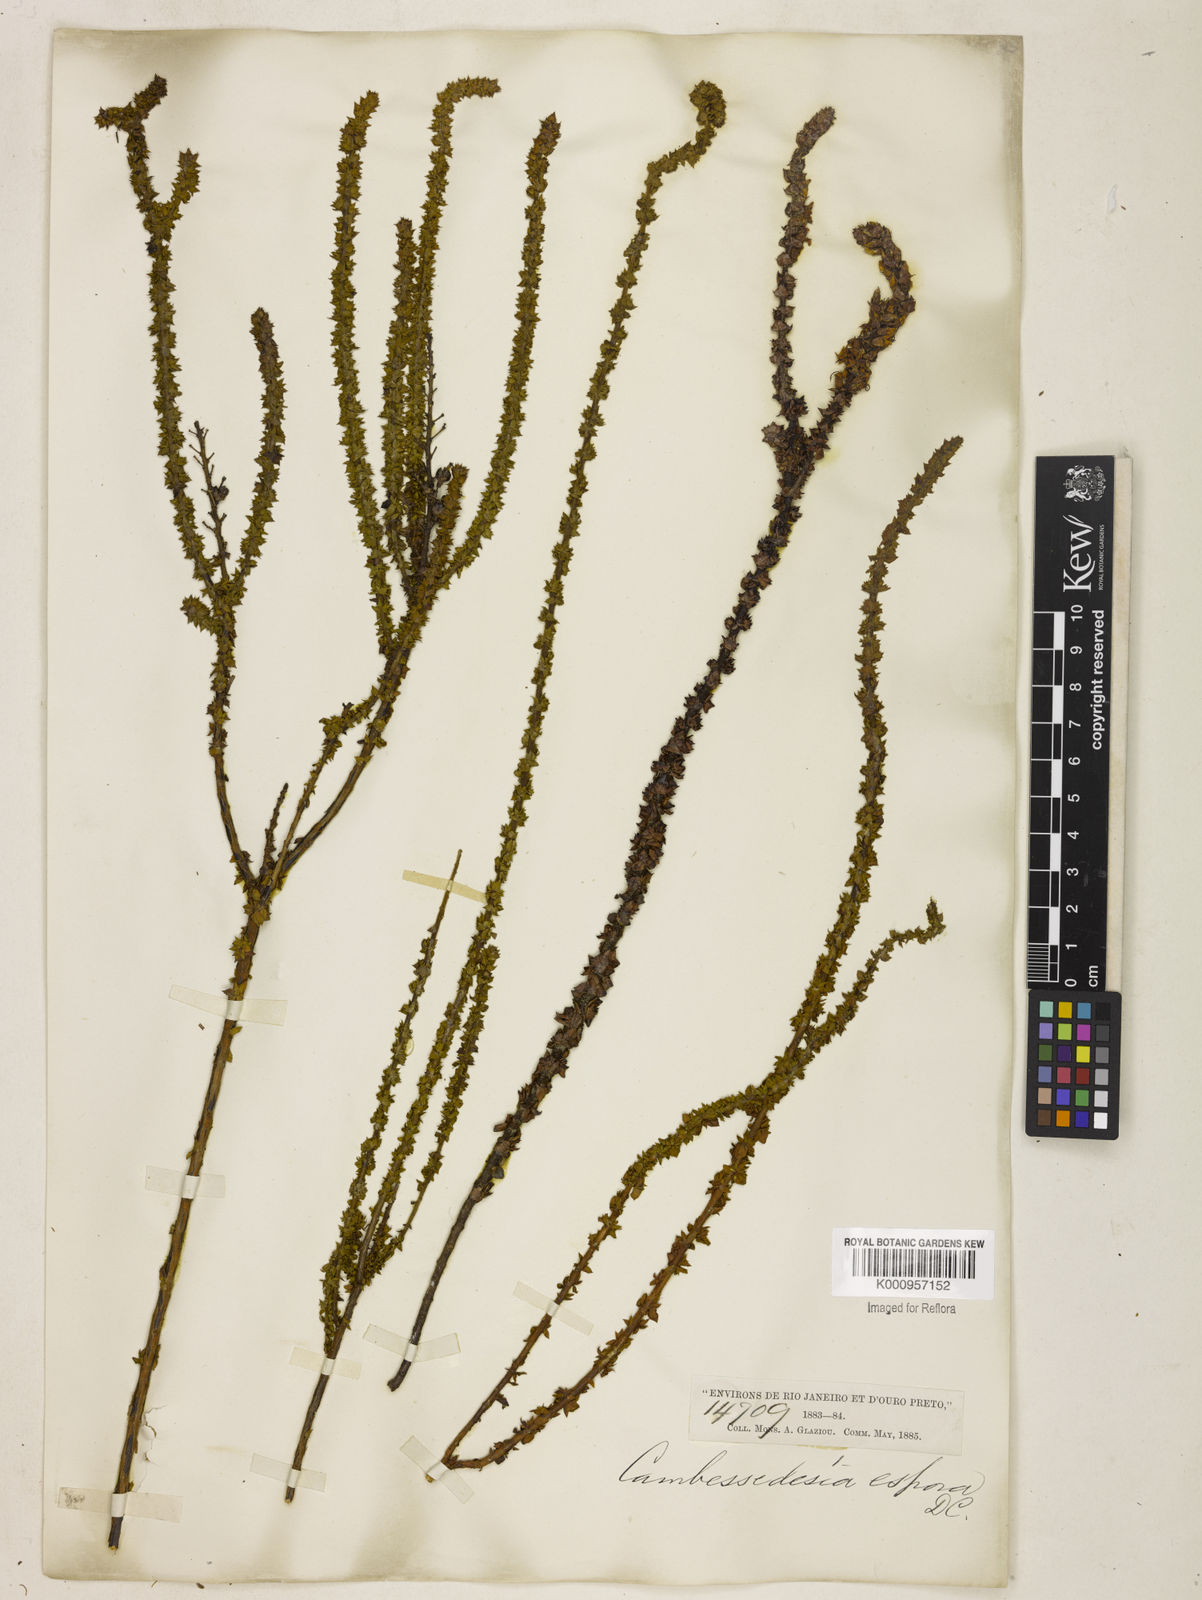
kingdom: Plantae
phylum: Tracheophyta
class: Magnoliopsida
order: Myrtales
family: Melastomataceae
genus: Cambessedesia
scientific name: Cambessedesia espora
